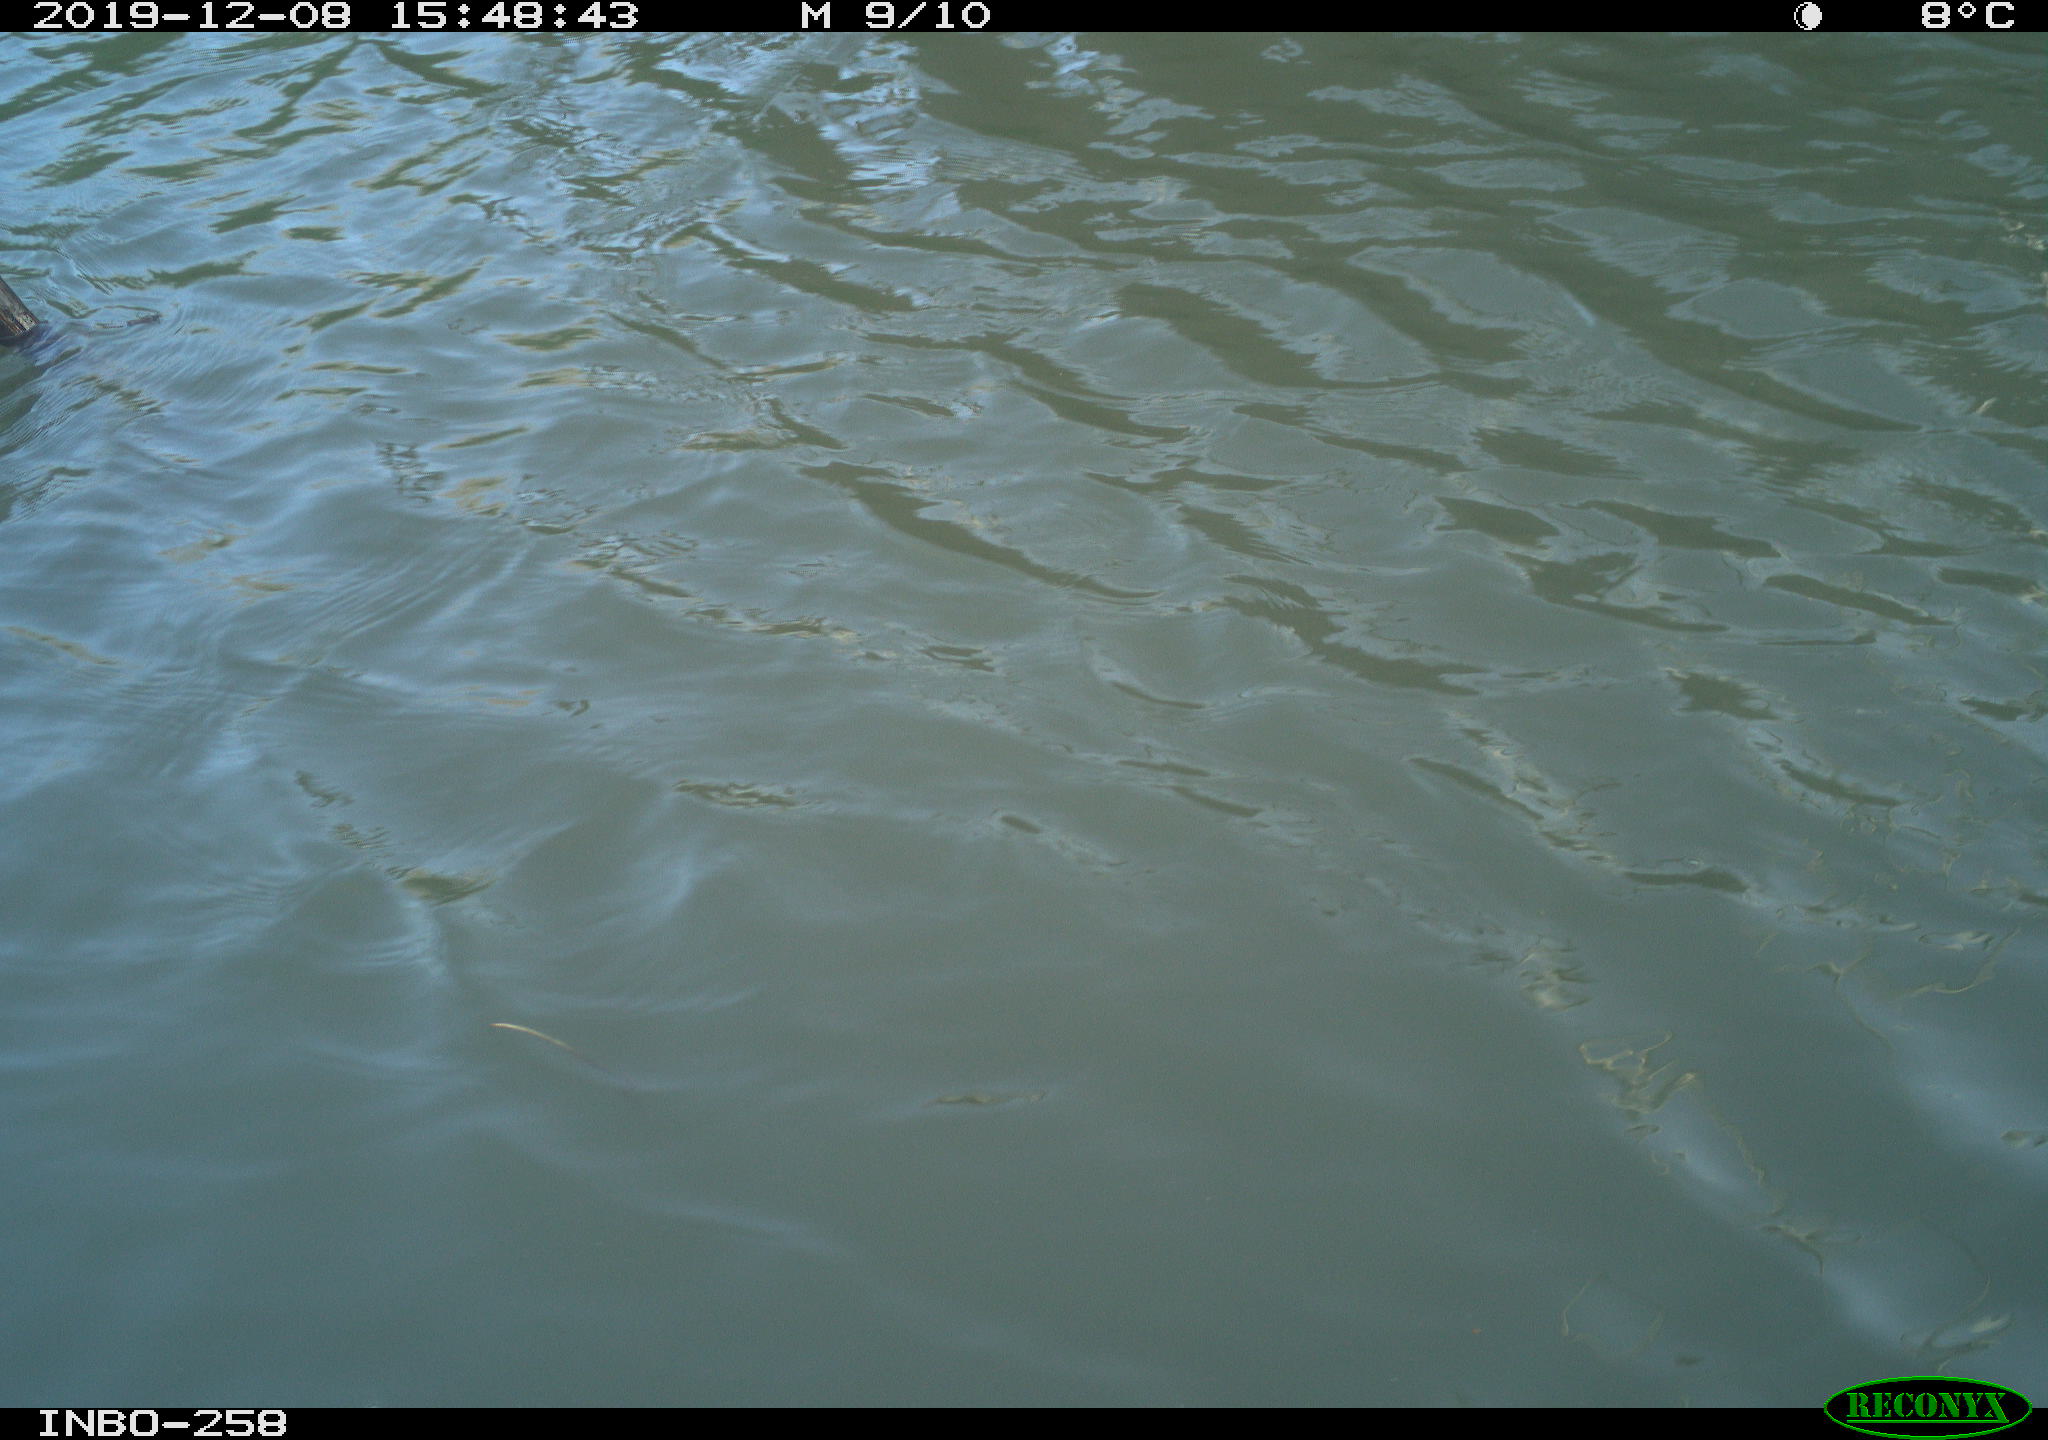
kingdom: Animalia
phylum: Chordata
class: Aves
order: Gruiformes
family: Rallidae
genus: Gallinula
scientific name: Gallinula chloropus
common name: Common moorhen
